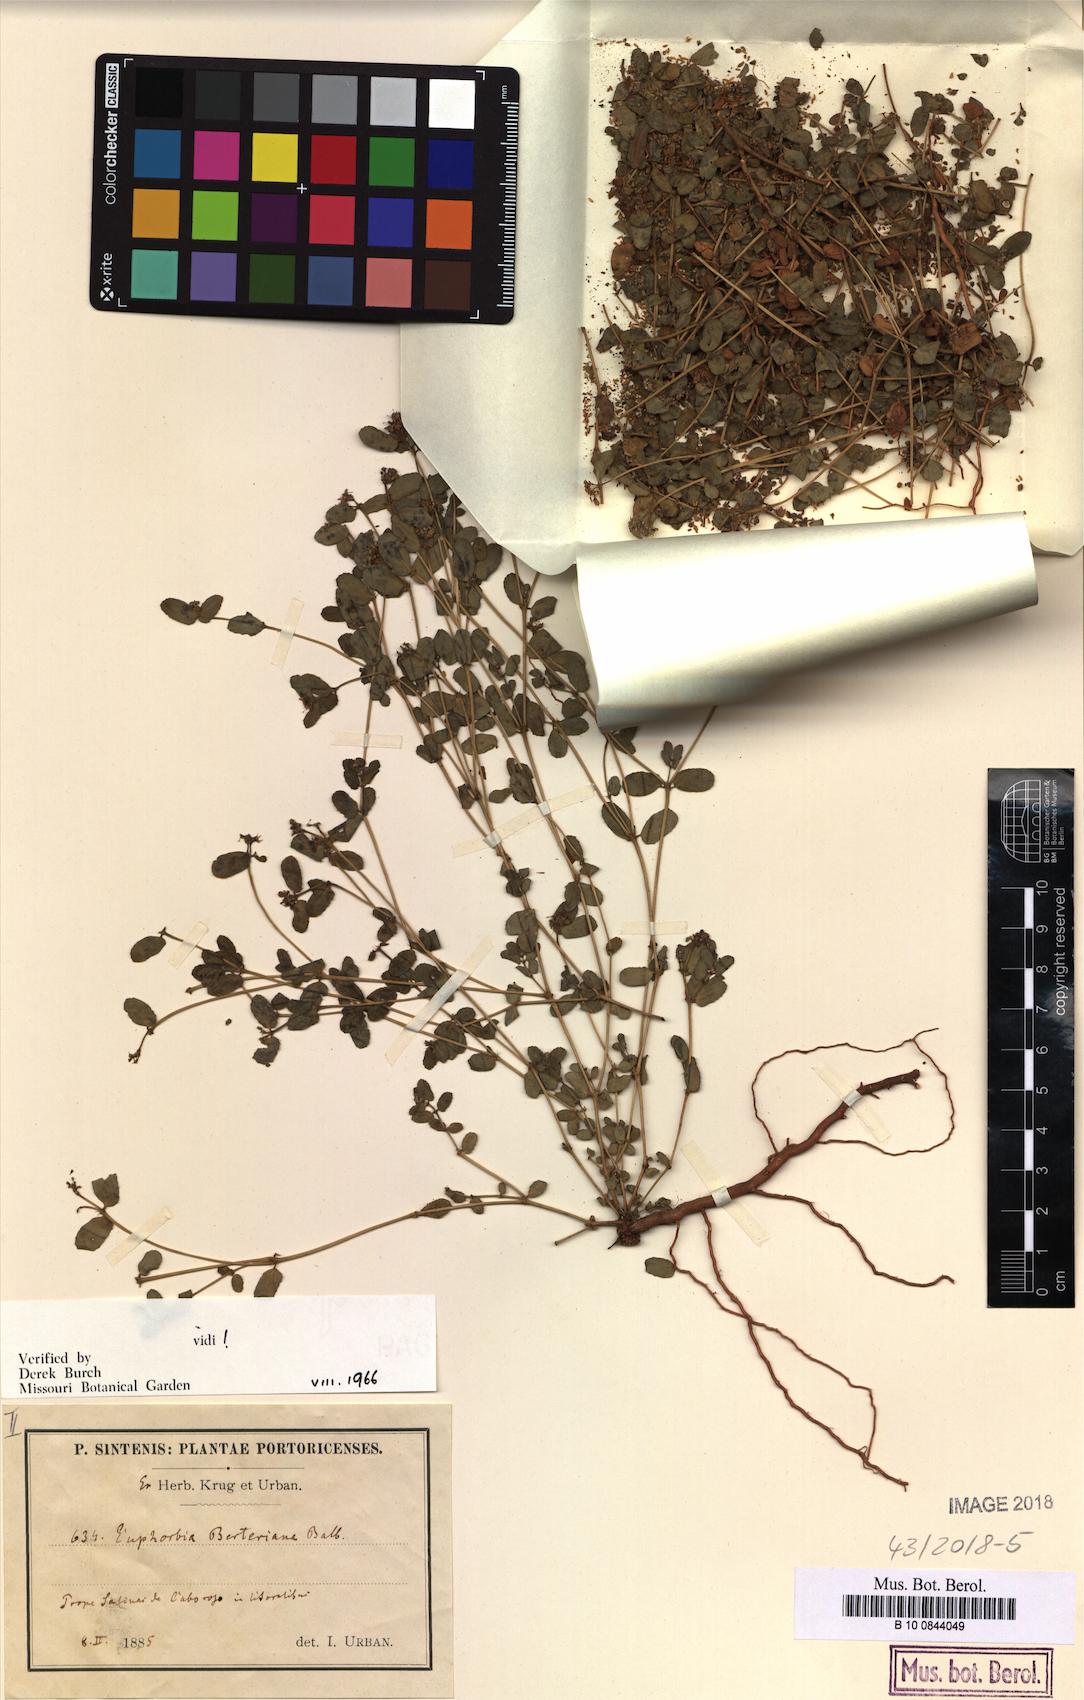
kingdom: Plantae
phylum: Tracheophyta
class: Magnoliopsida
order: Malpighiales
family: Euphorbiaceae
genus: Euphorbia
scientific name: Euphorbia berteroana
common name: Bertero's sandmat
